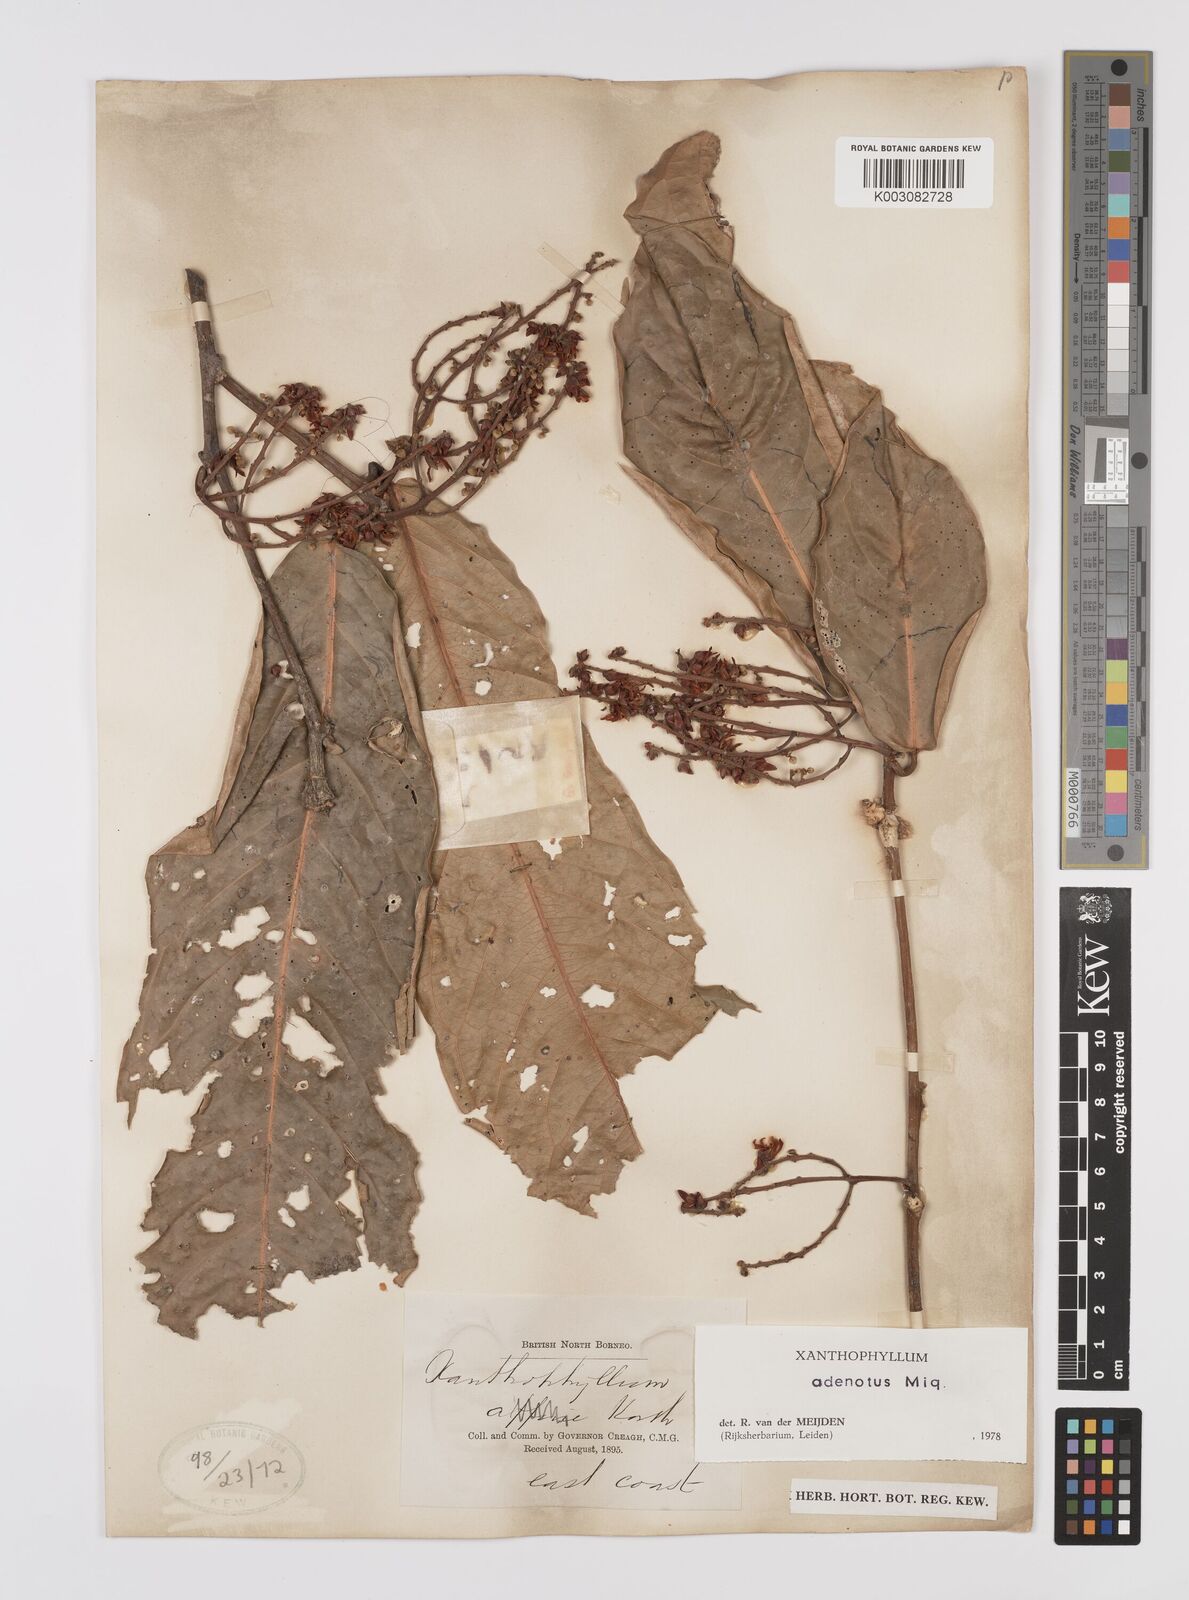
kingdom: Plantae
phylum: Tracheophyta
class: Magnoliopsida
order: Fabales
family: Polygalaceae
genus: Xanthophyllum
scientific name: Xanthophyllum adenotus
